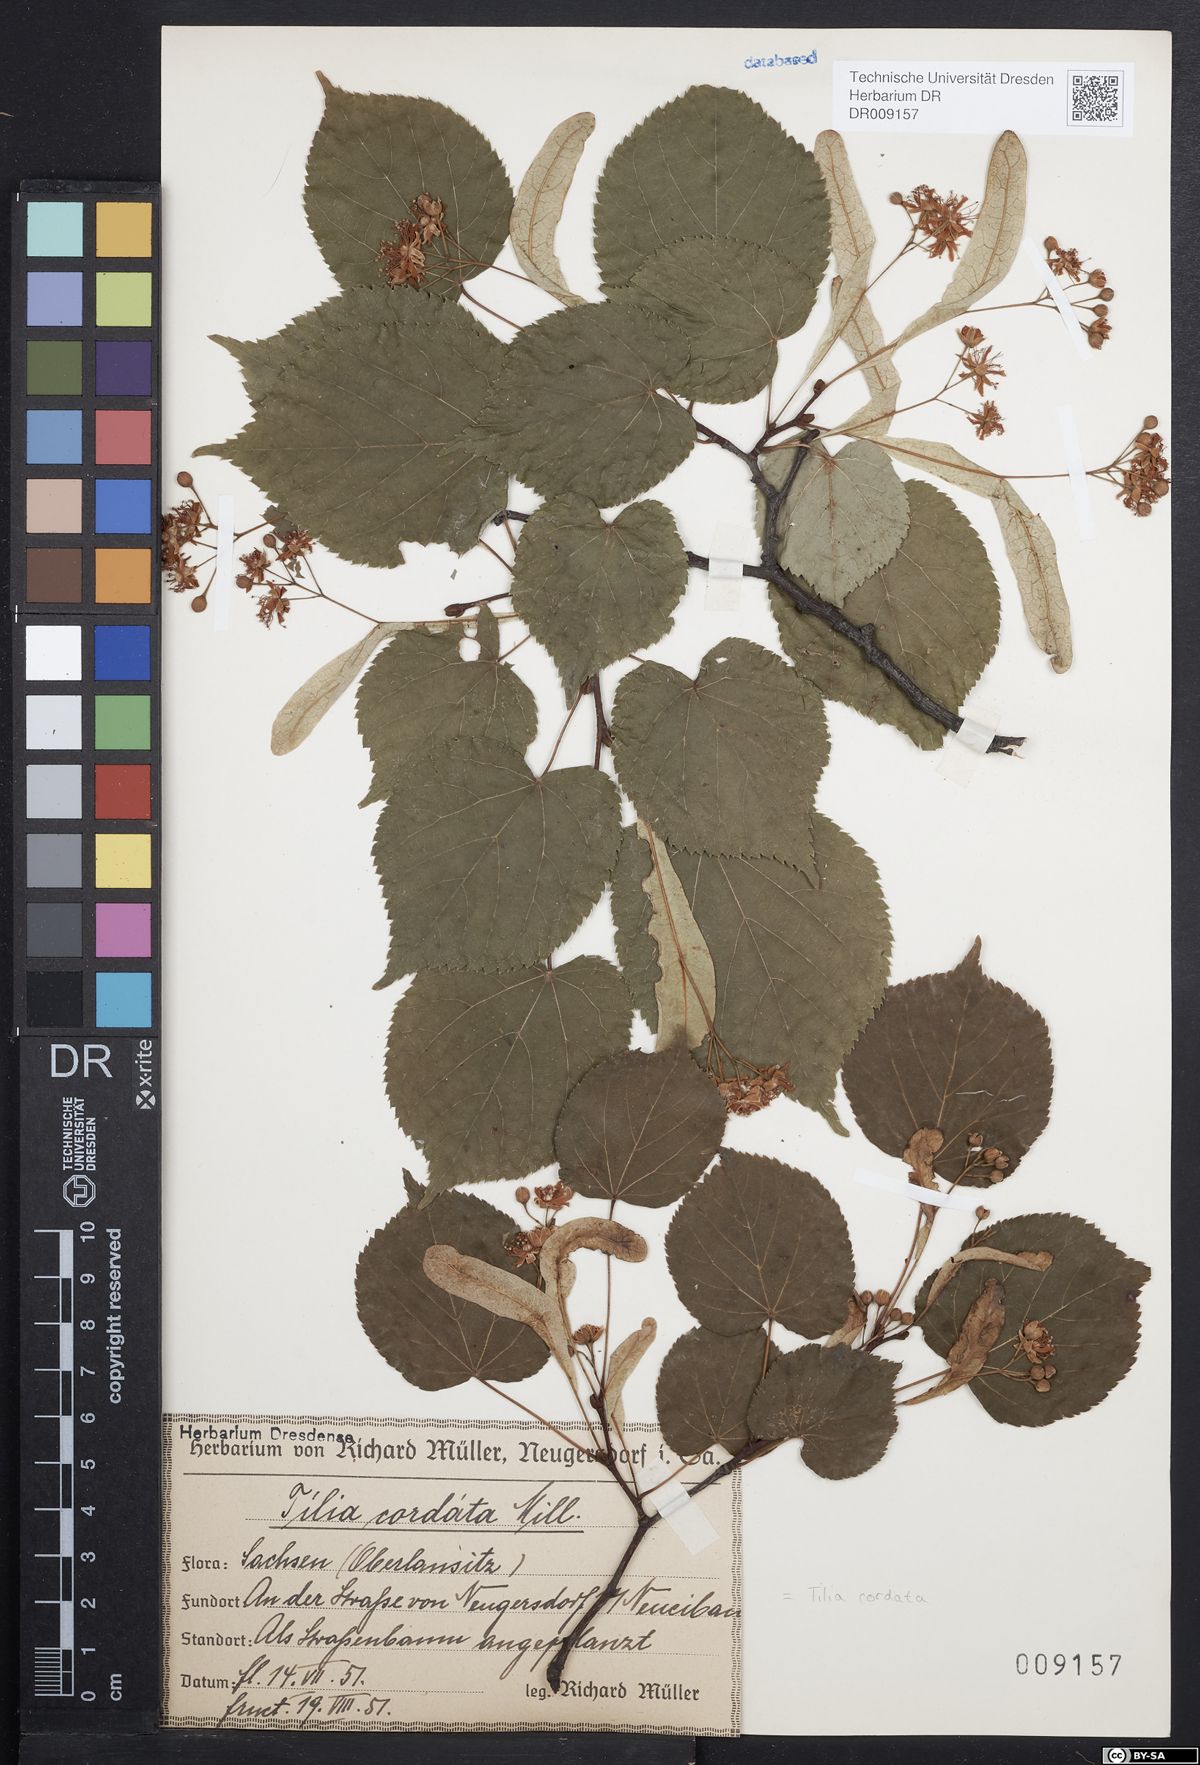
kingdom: Plantae
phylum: Tracheophyta
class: Magnoliopsida
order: Malvales
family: Malvaceae
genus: Tilia
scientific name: Tilia cordata
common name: Small-leaved lime
